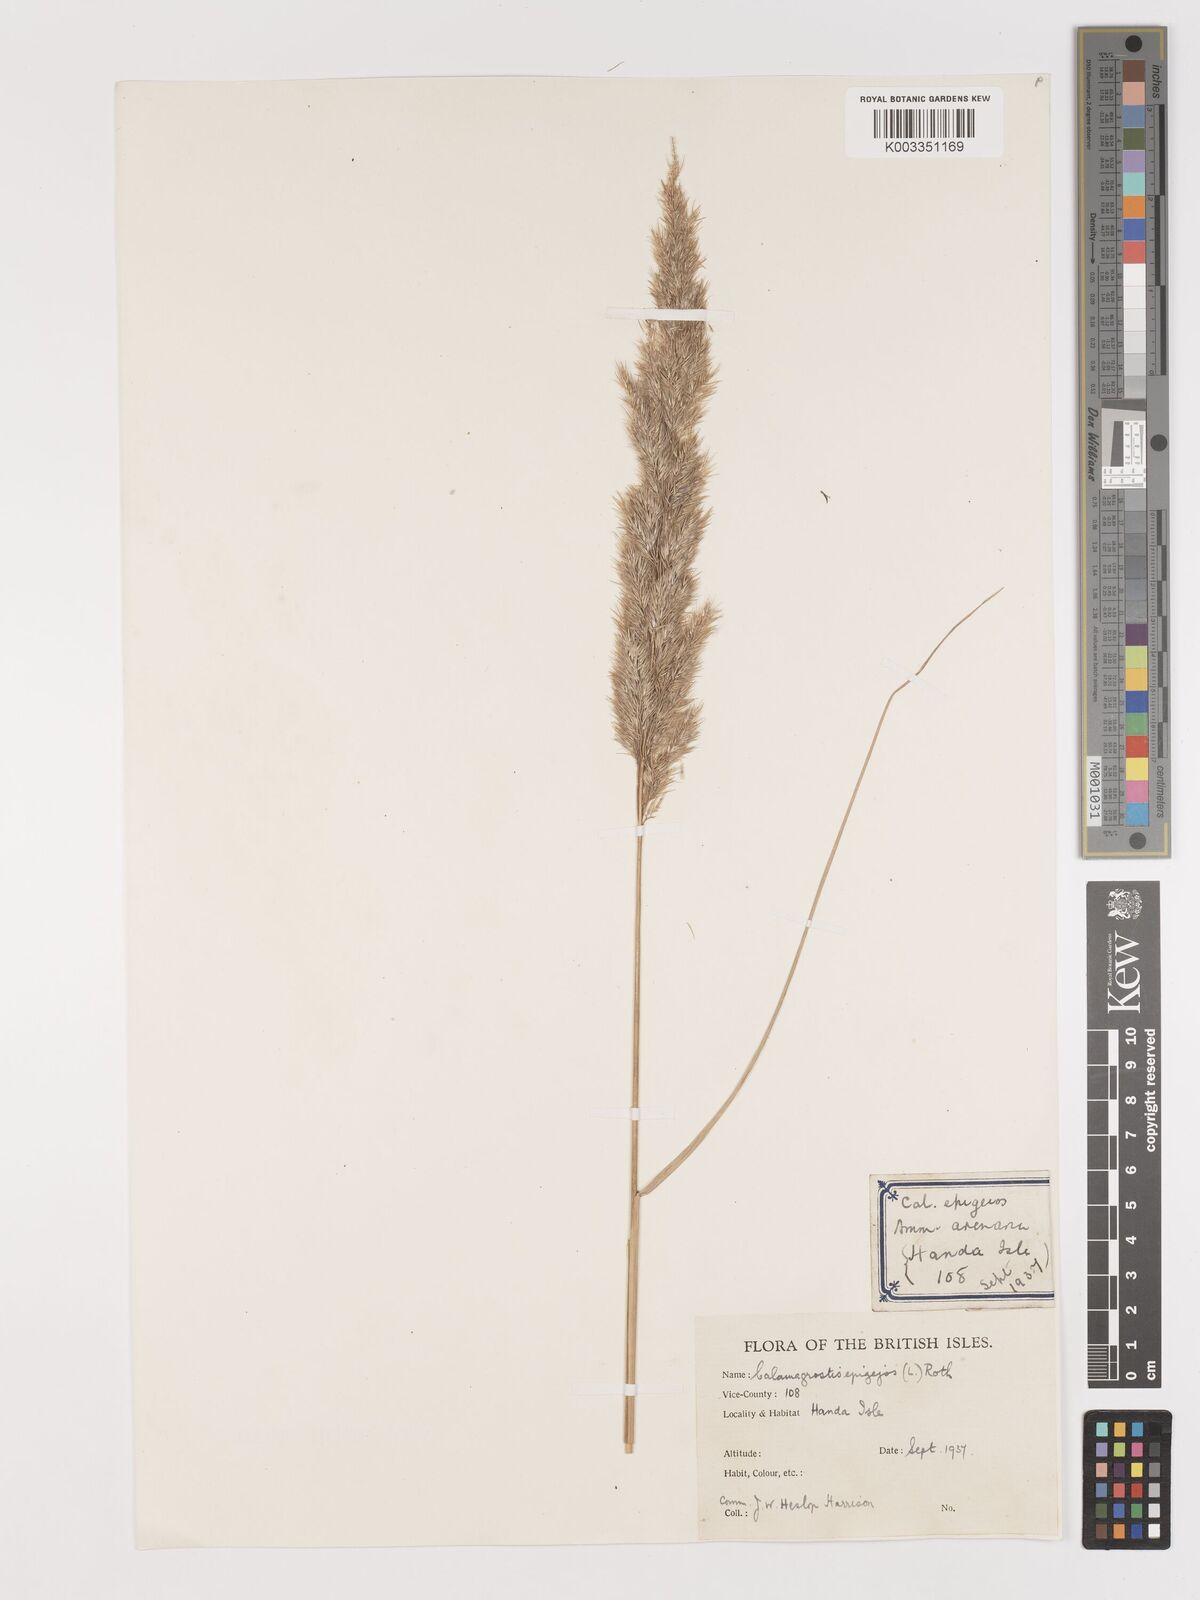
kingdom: Plantae
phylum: Tracheophyta
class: Liliopsida
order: Poales
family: Poaceae
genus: Calamagrostis
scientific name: Calamagrostis
